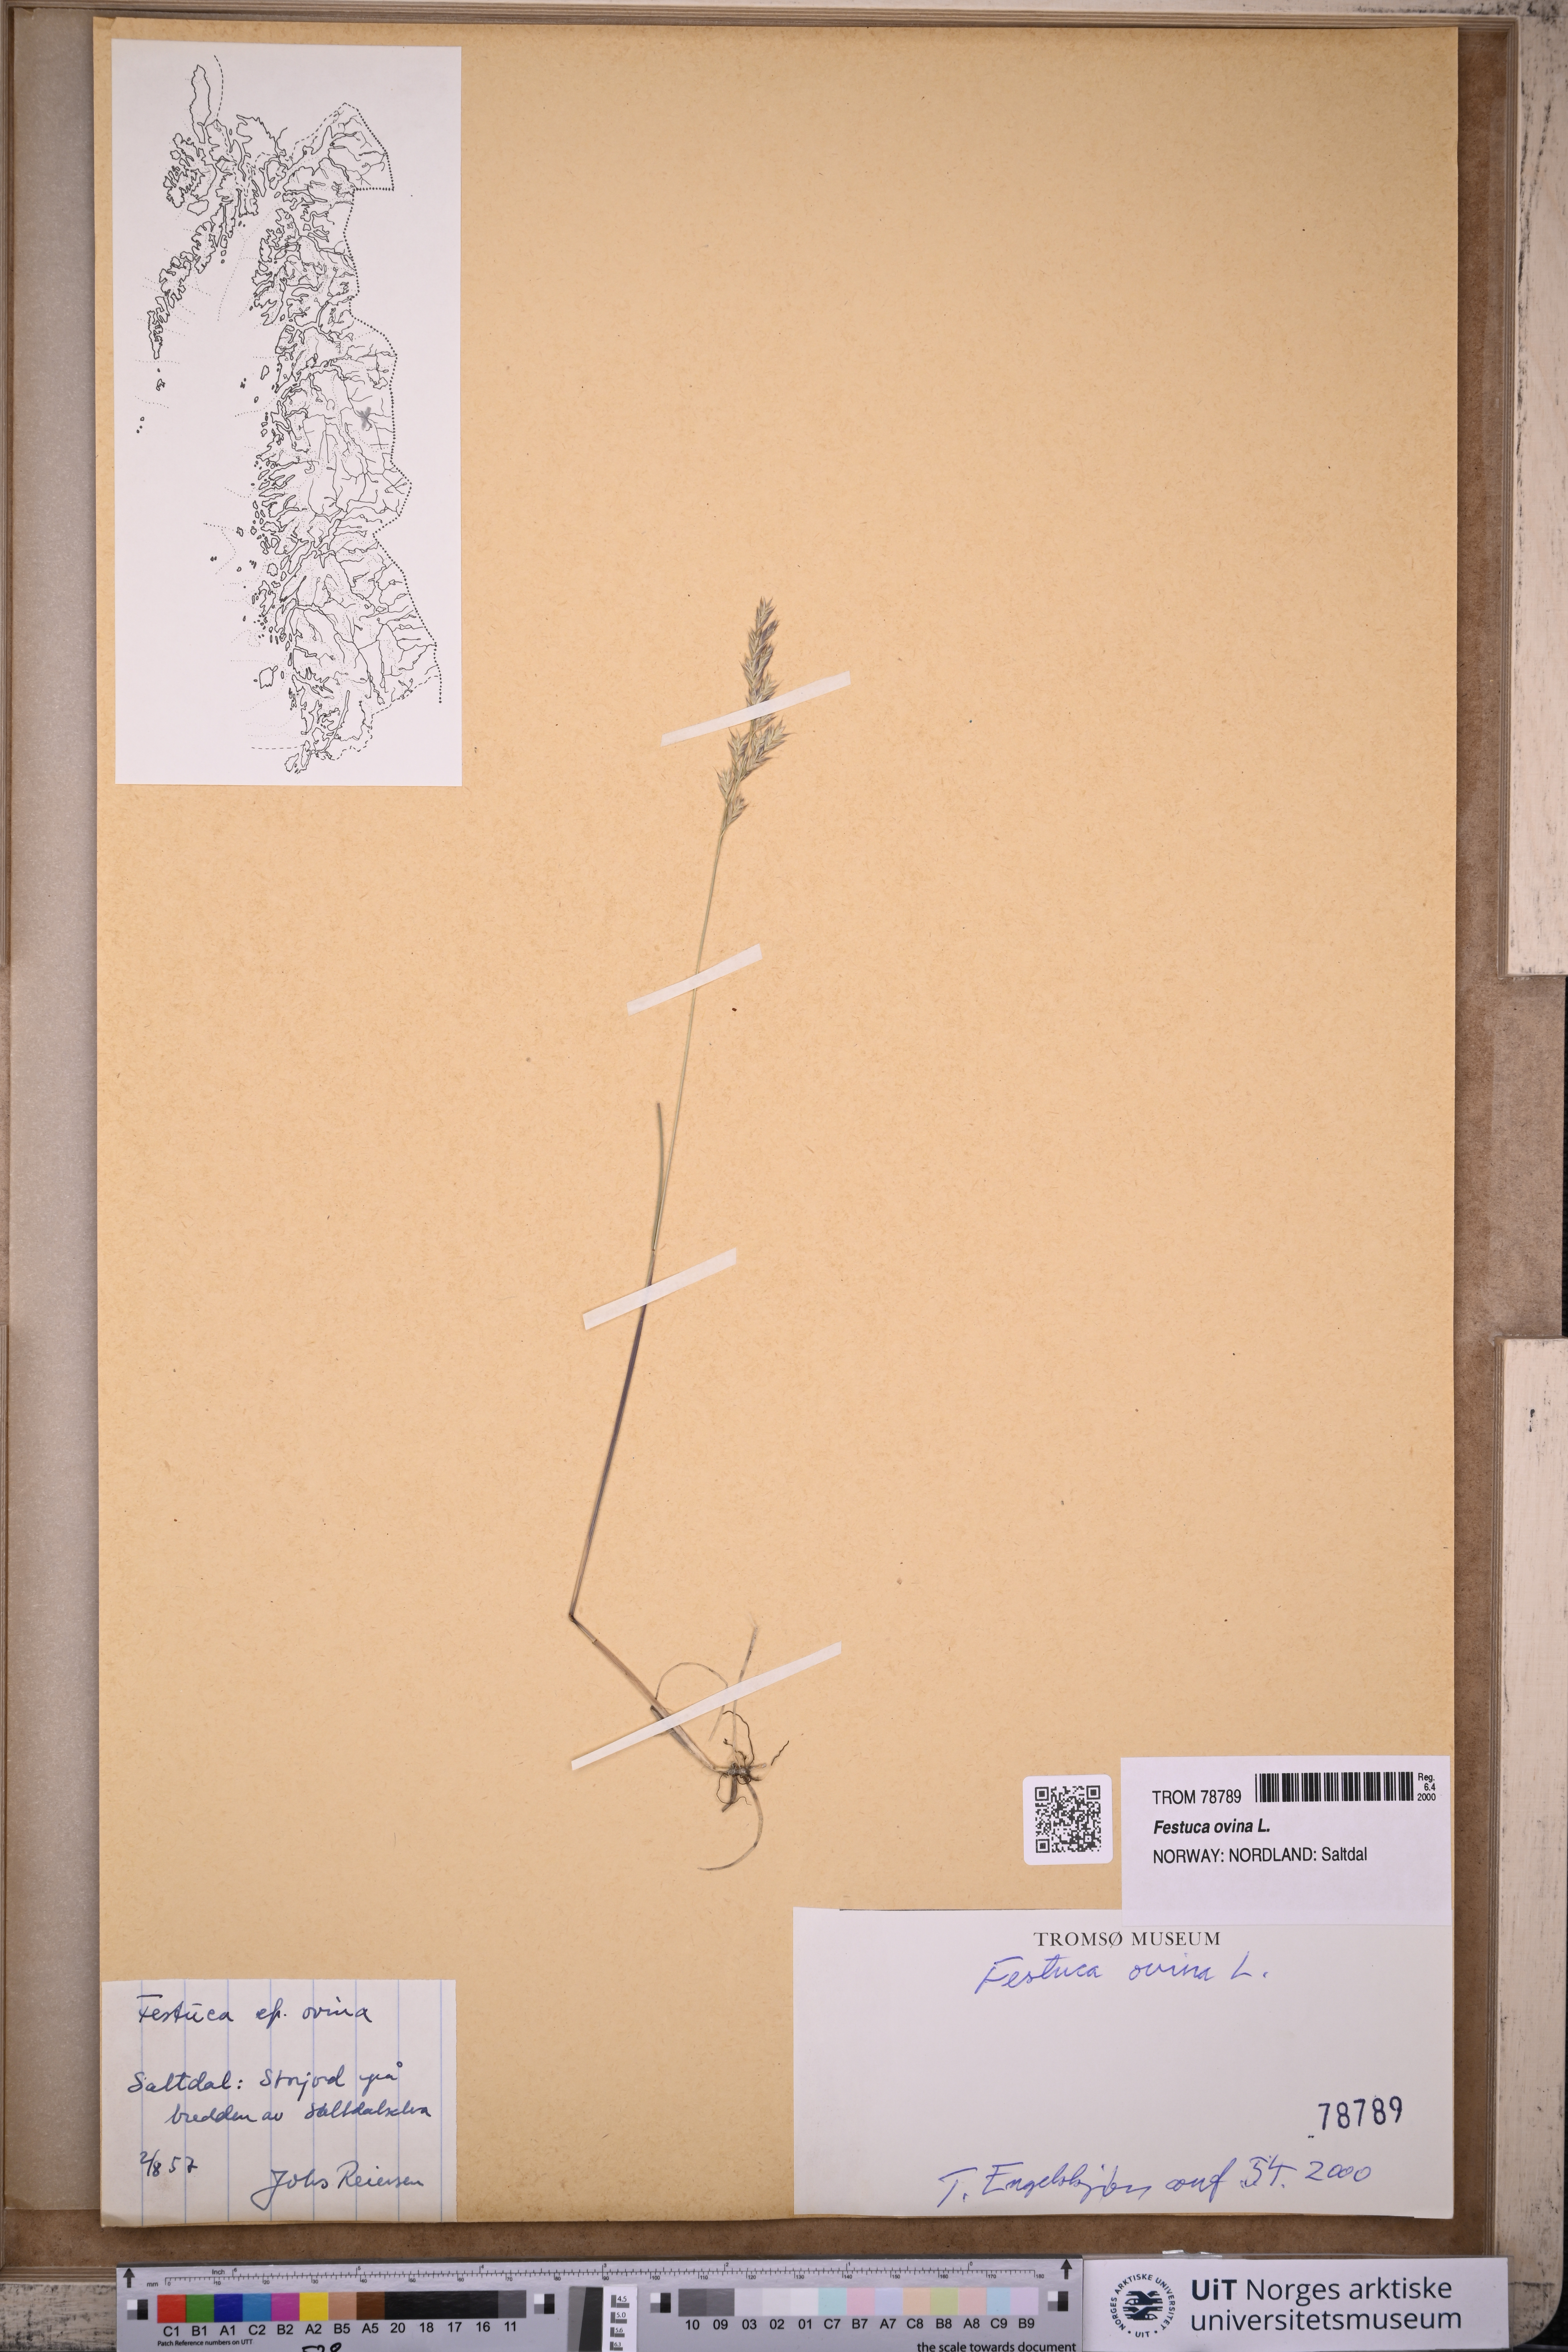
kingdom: Plantae
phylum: Tracheophyta
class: Liliopsida
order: Poales
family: Poaceae
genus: Festuca
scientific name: Festuca ovina
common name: Sheep fescue
